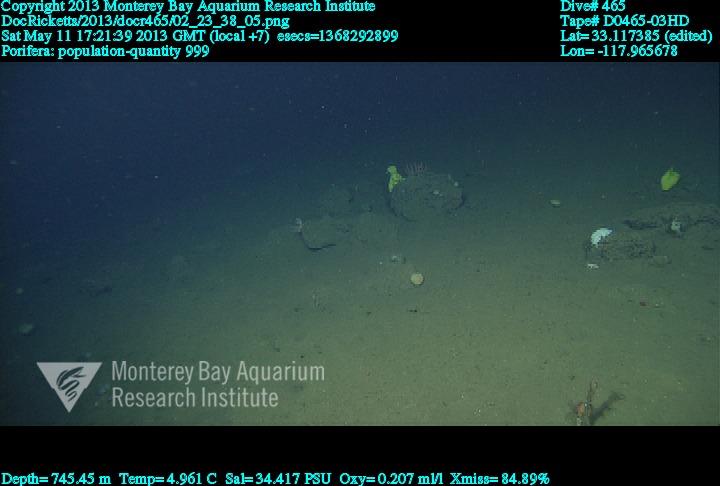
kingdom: Animalia
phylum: Porifera
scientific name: Porifera
